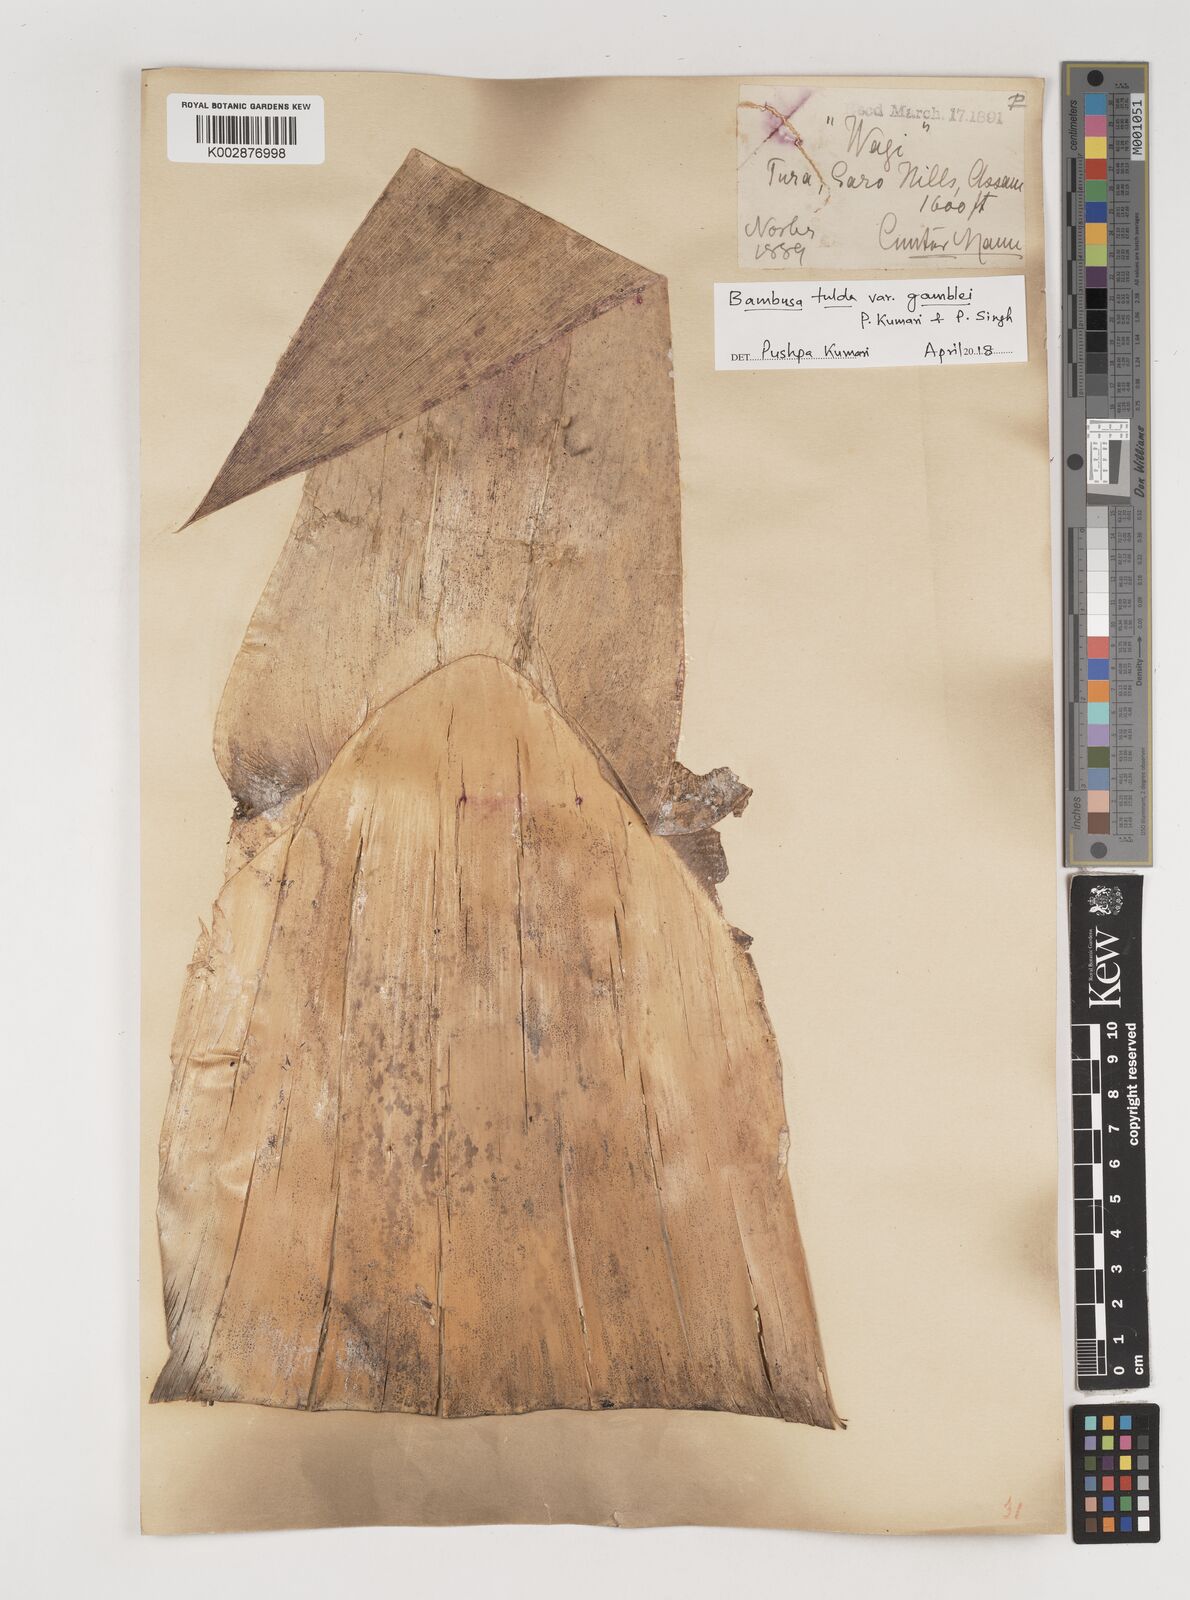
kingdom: Plantae
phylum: Tracheophyta
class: Liliopsida
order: Poales
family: Poaceae
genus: Bambusa
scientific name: Bambusa tulda
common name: Bengal bamboo
